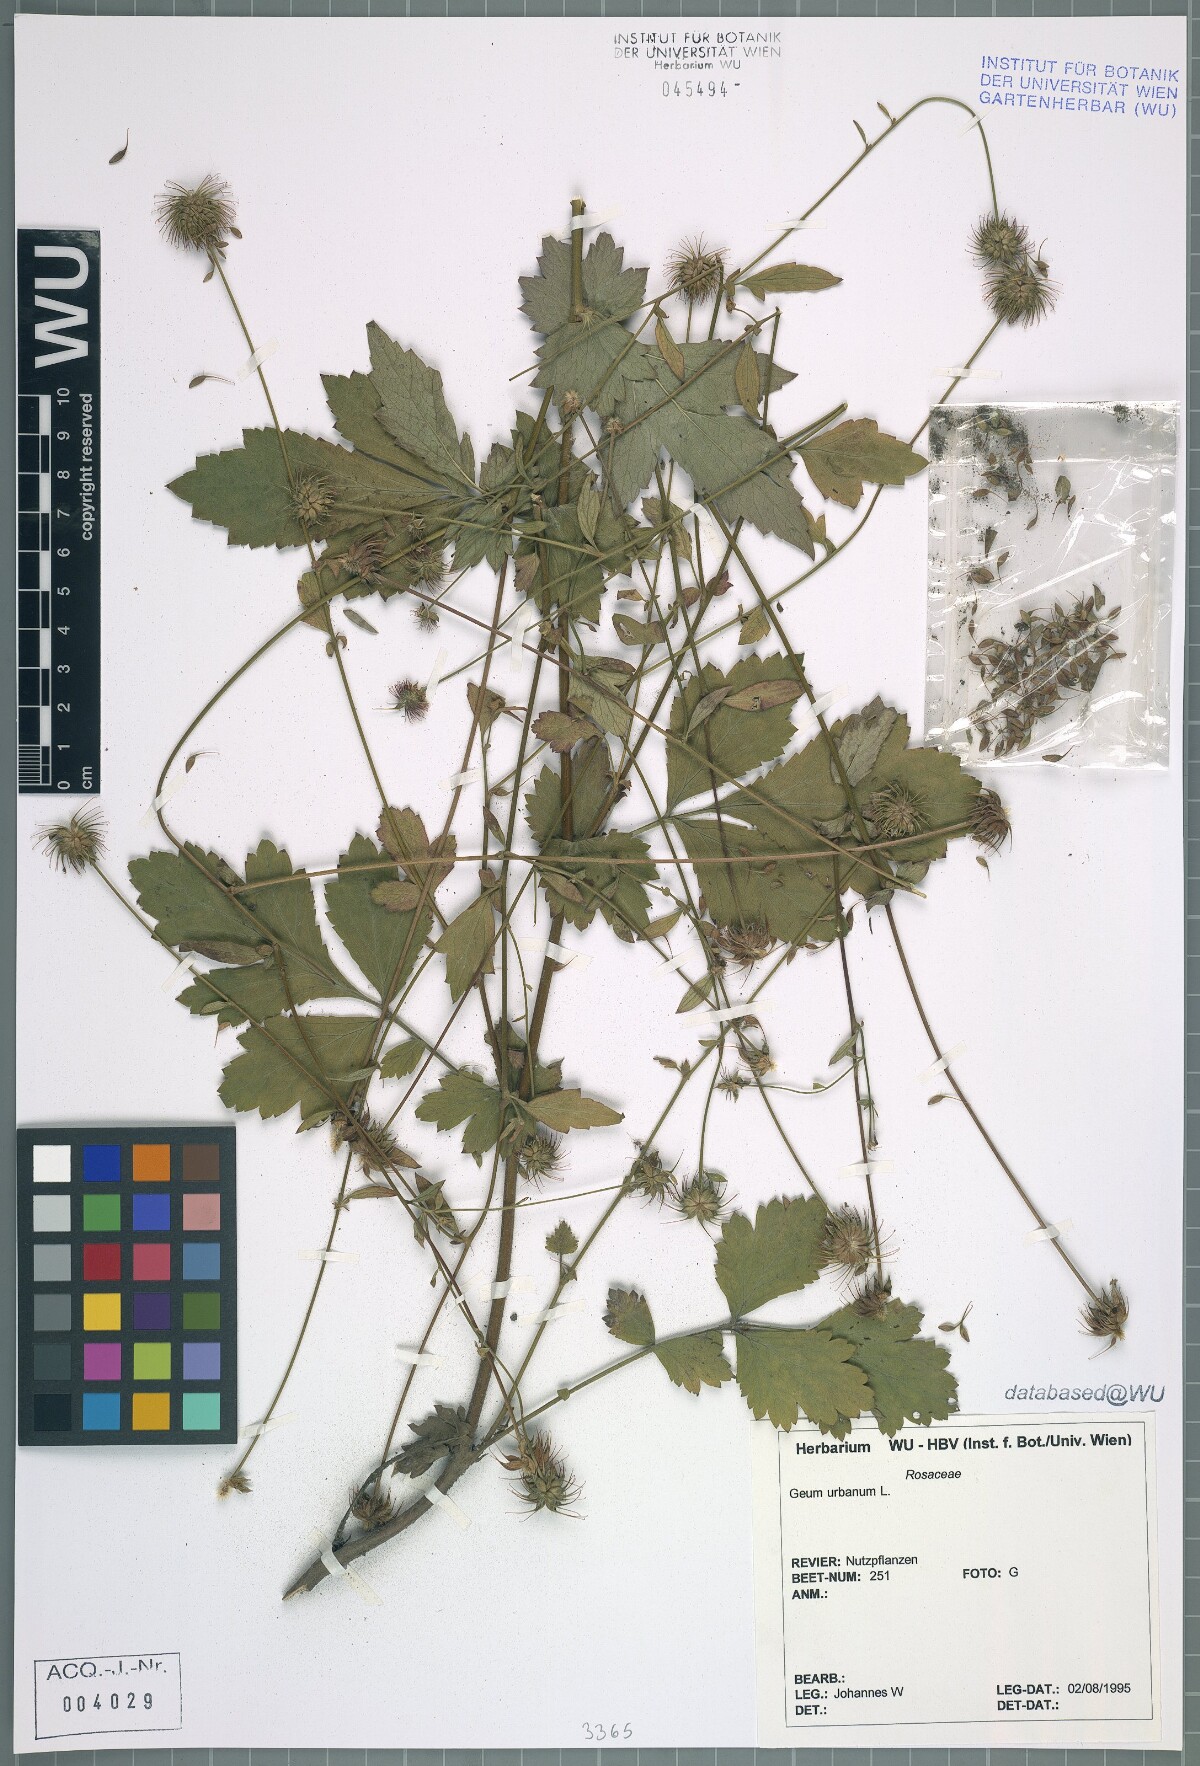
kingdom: Plantae
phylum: Tracheophyta
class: Magnoliopsida
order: Rosales
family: Rosaceae
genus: Geum
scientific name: Geum urbanum
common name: Wood avens
